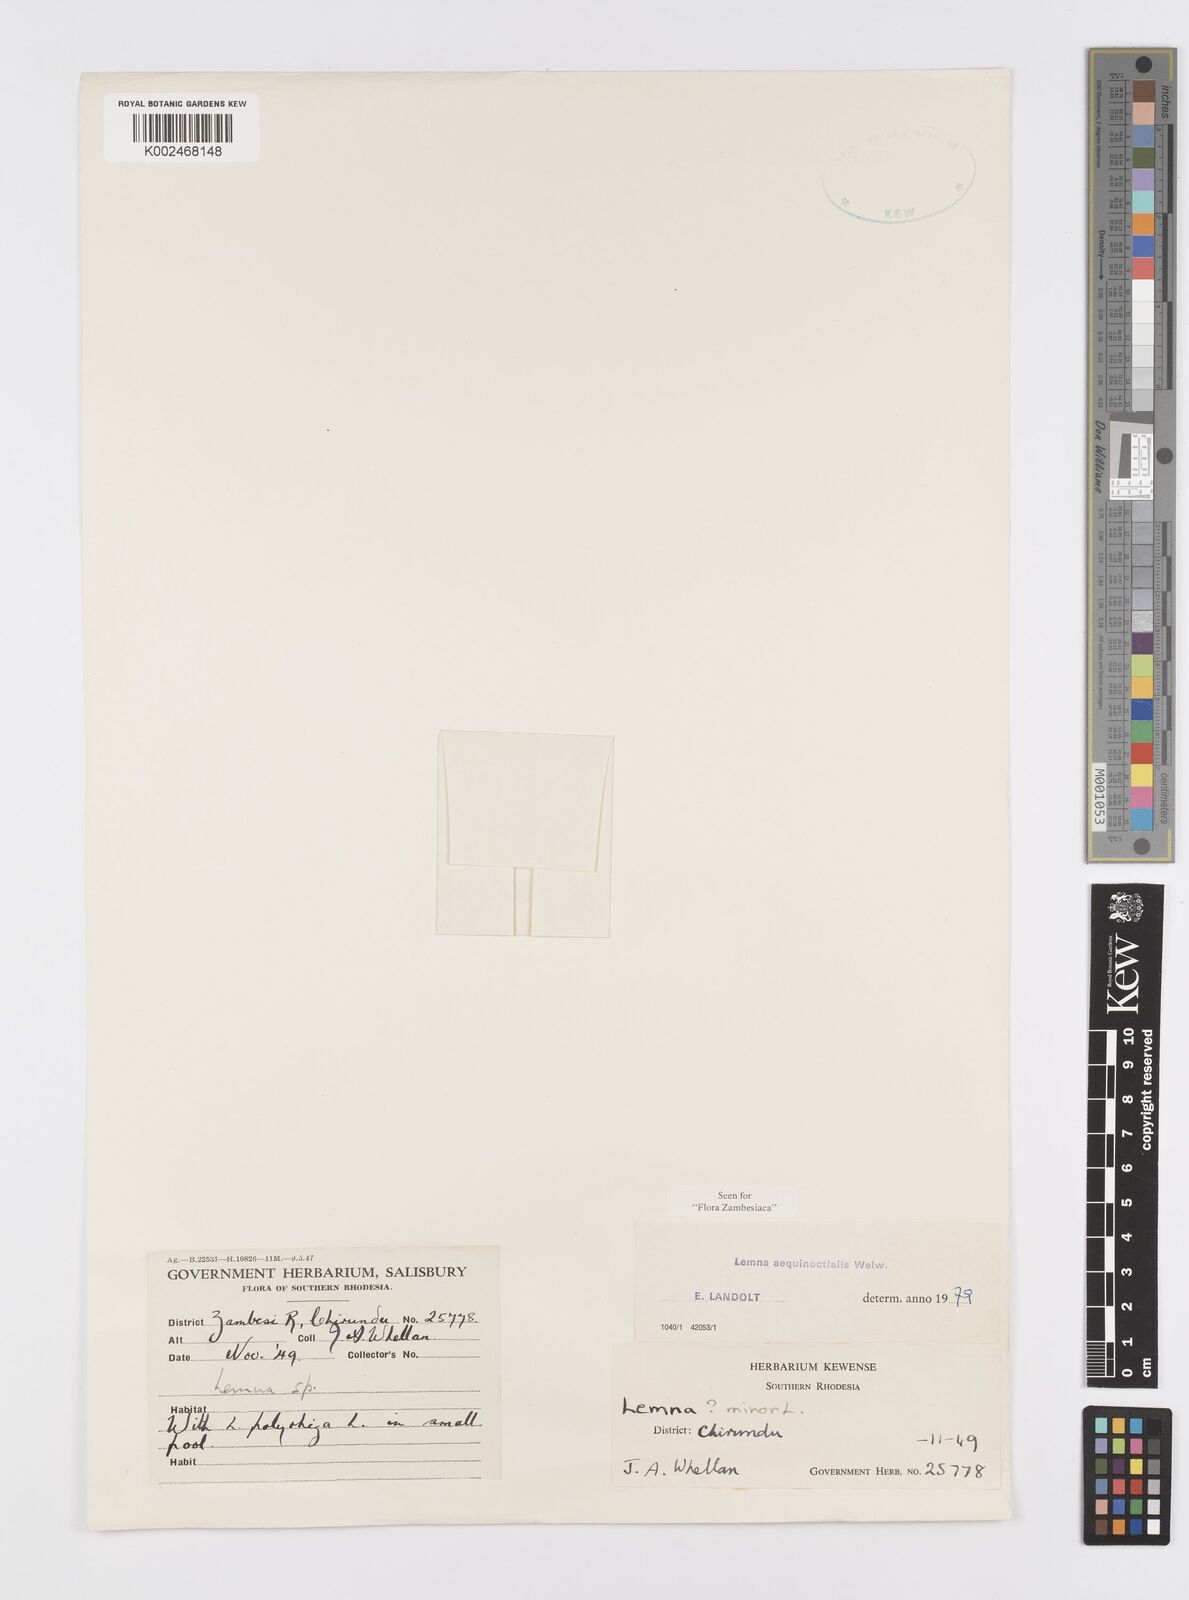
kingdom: Plantae
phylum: Tracheophyta
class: Liliopsida
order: Alismatales
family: Araceae
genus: Lemna
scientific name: Lemna aequinoctialis
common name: Duckweed
